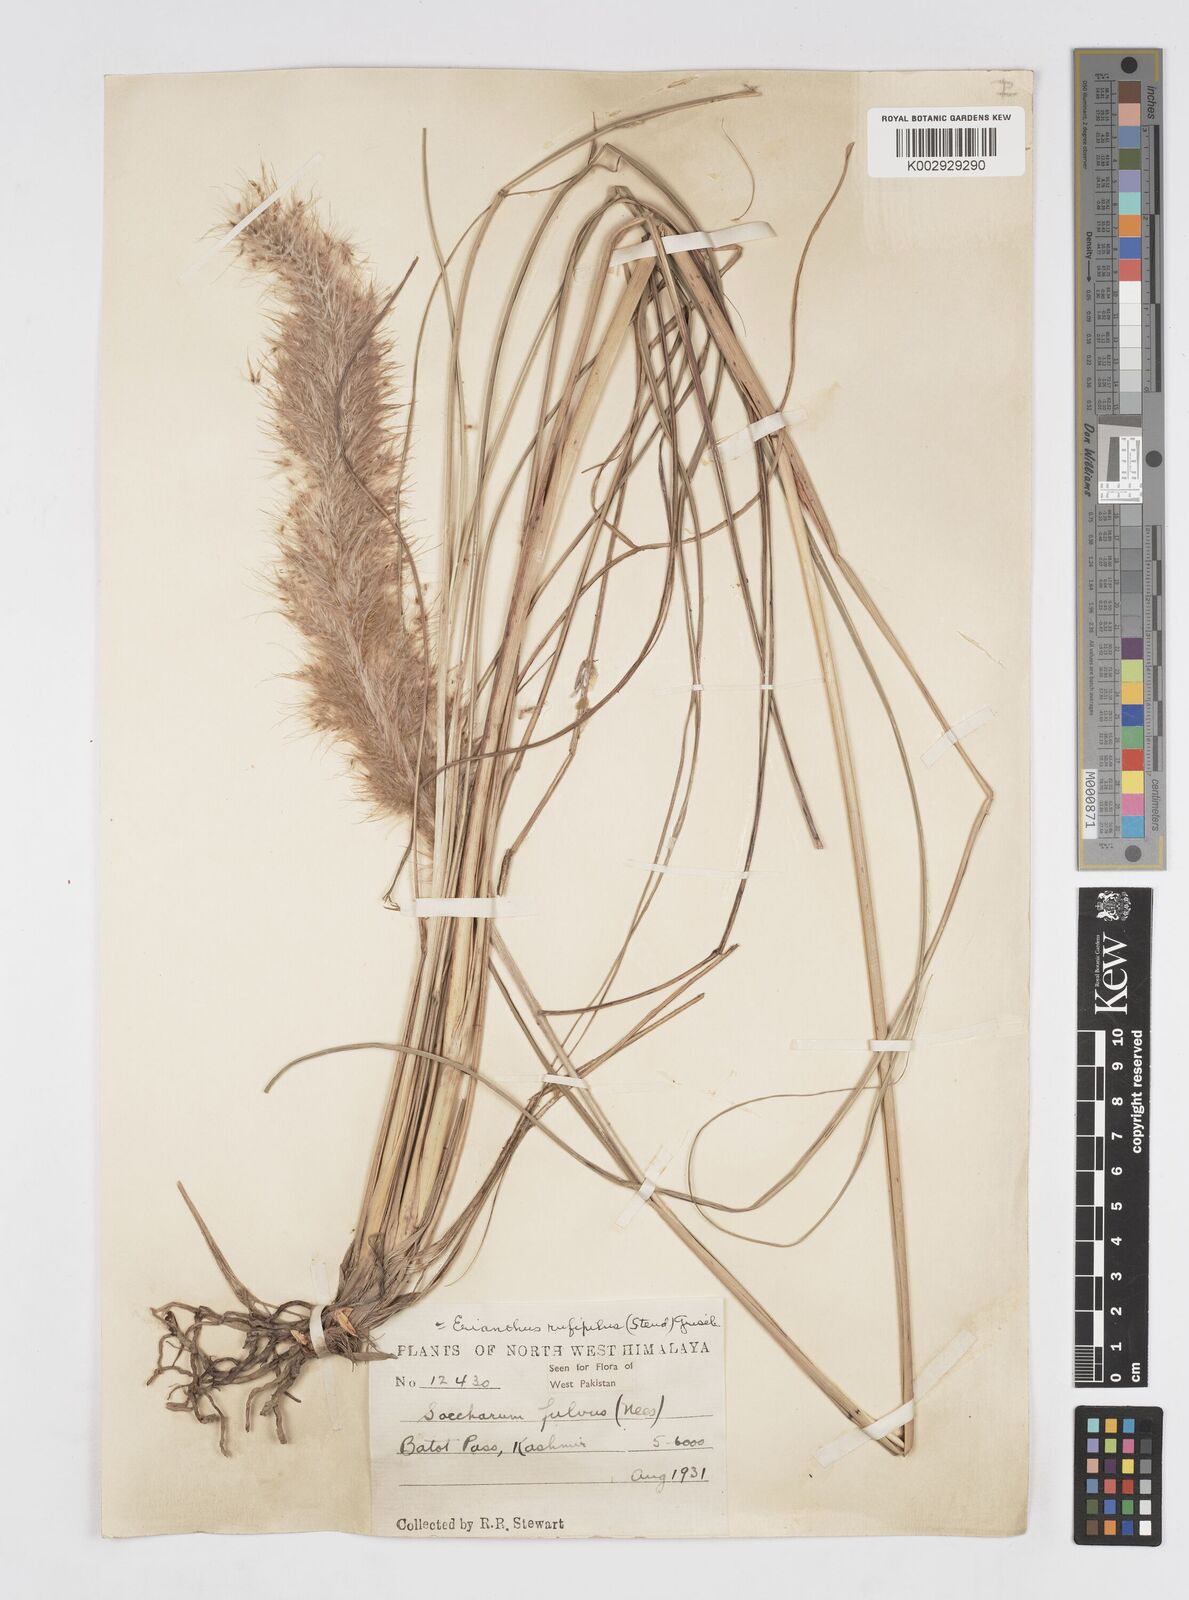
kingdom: Plantae
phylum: Tracheophyta
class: Liliopsida
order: Poales
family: Poaceae
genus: Tripidium
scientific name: Tripidium rufipilum
